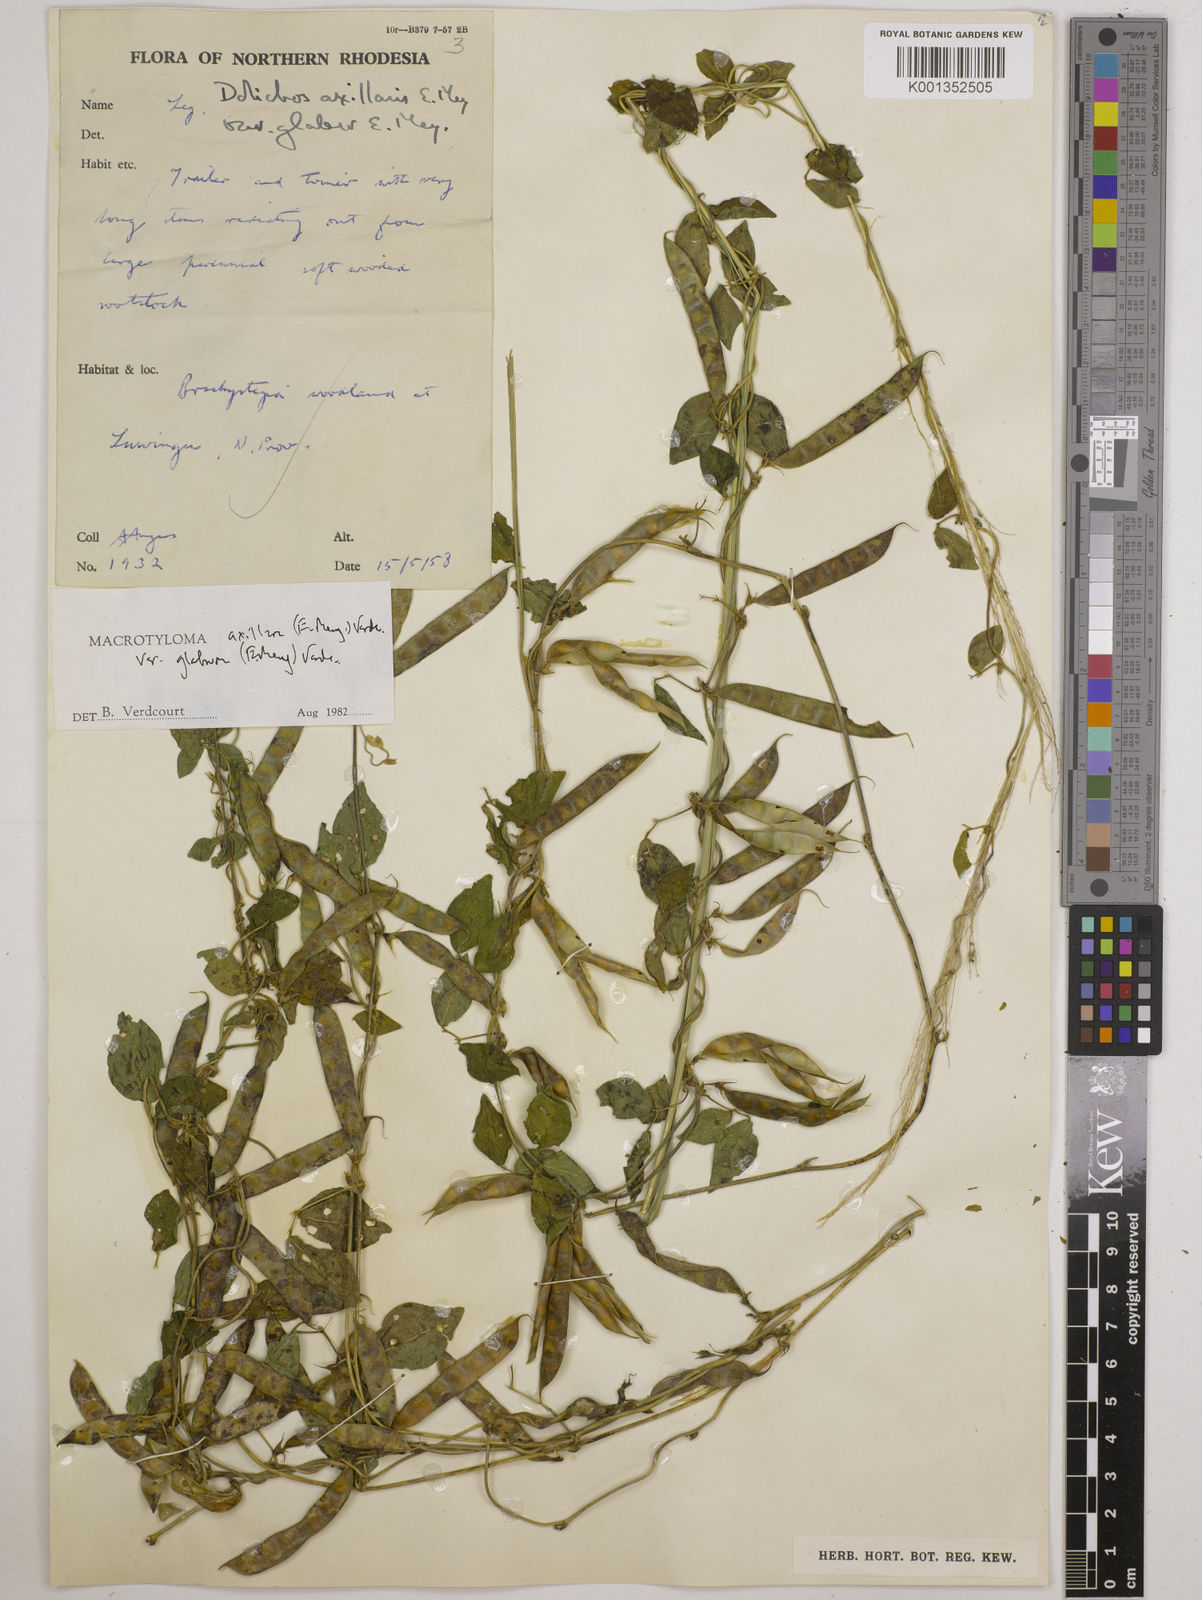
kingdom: Plantae
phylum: Tracheophyta
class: Magnoliopsida
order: Fabales
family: Fabaceae
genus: Macrotyloma
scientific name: Macrotyloma
